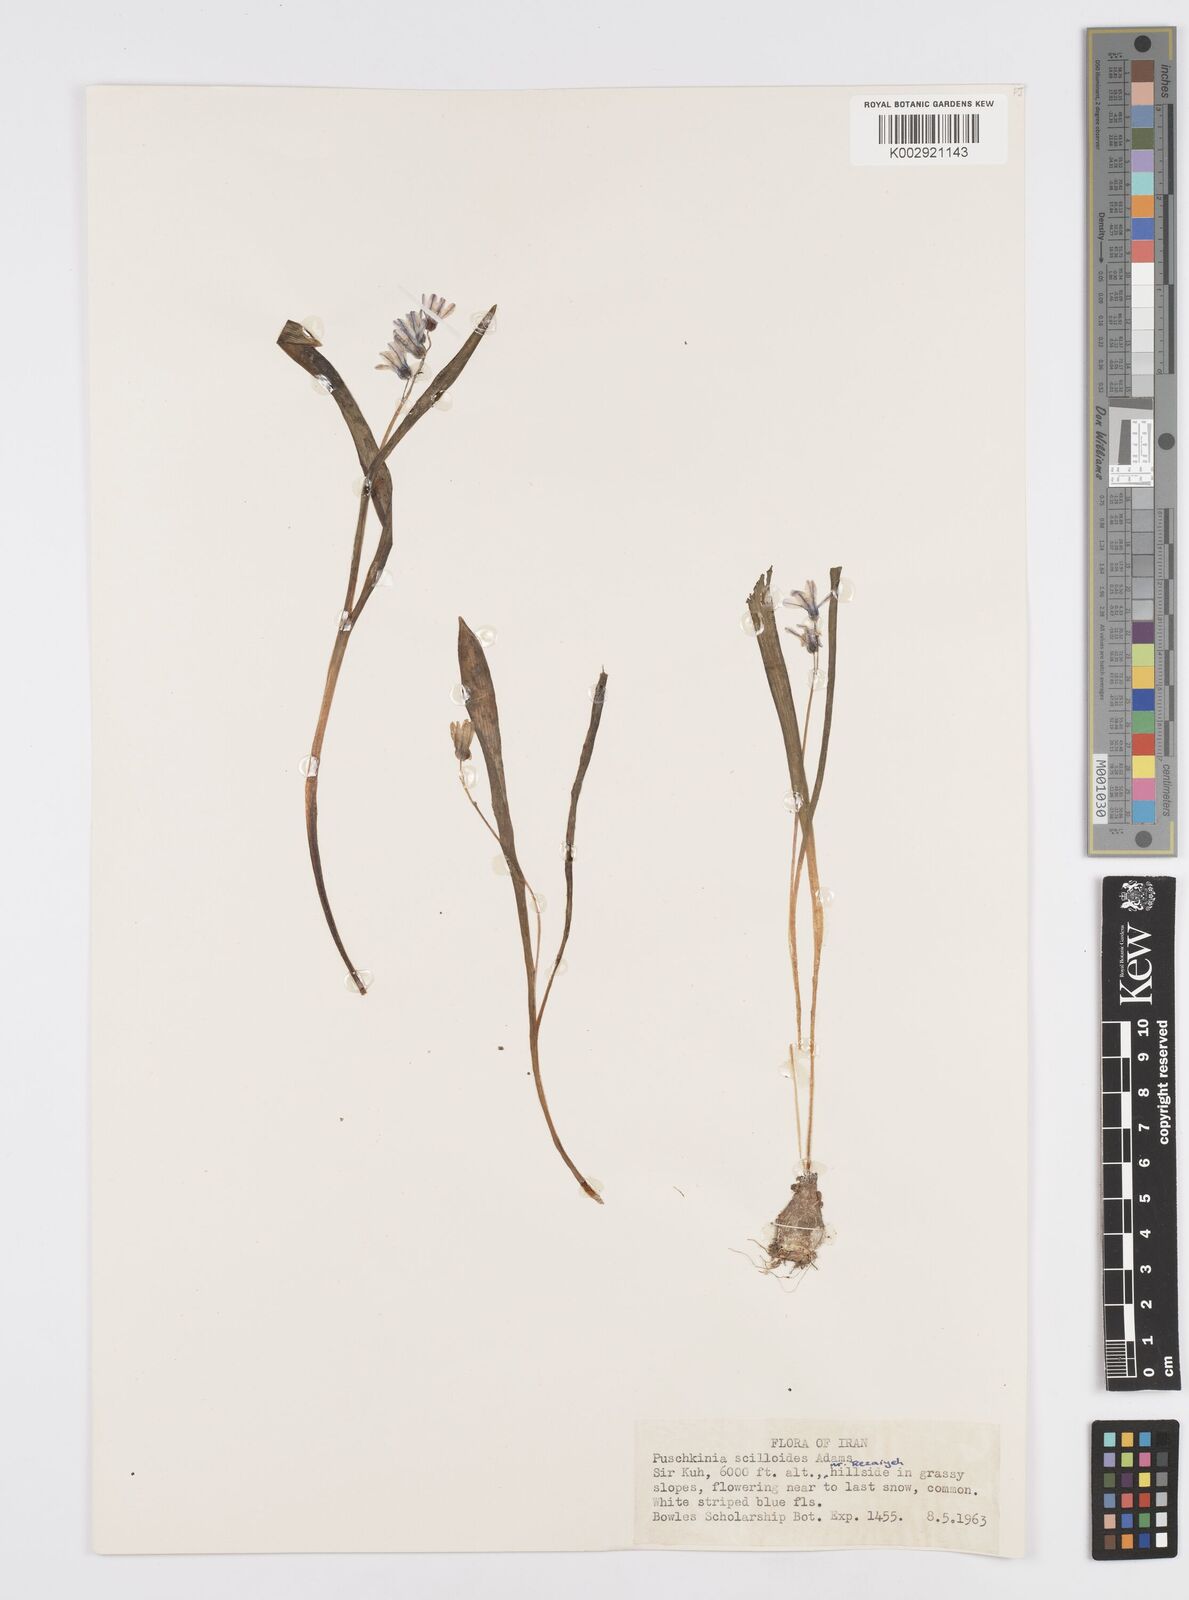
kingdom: Plantae
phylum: Tracheophyta
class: Liliopsida
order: Asparagales
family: Asparagaceae
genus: Puschkinia
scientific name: Puschkinia scilloides
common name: Striped squill
